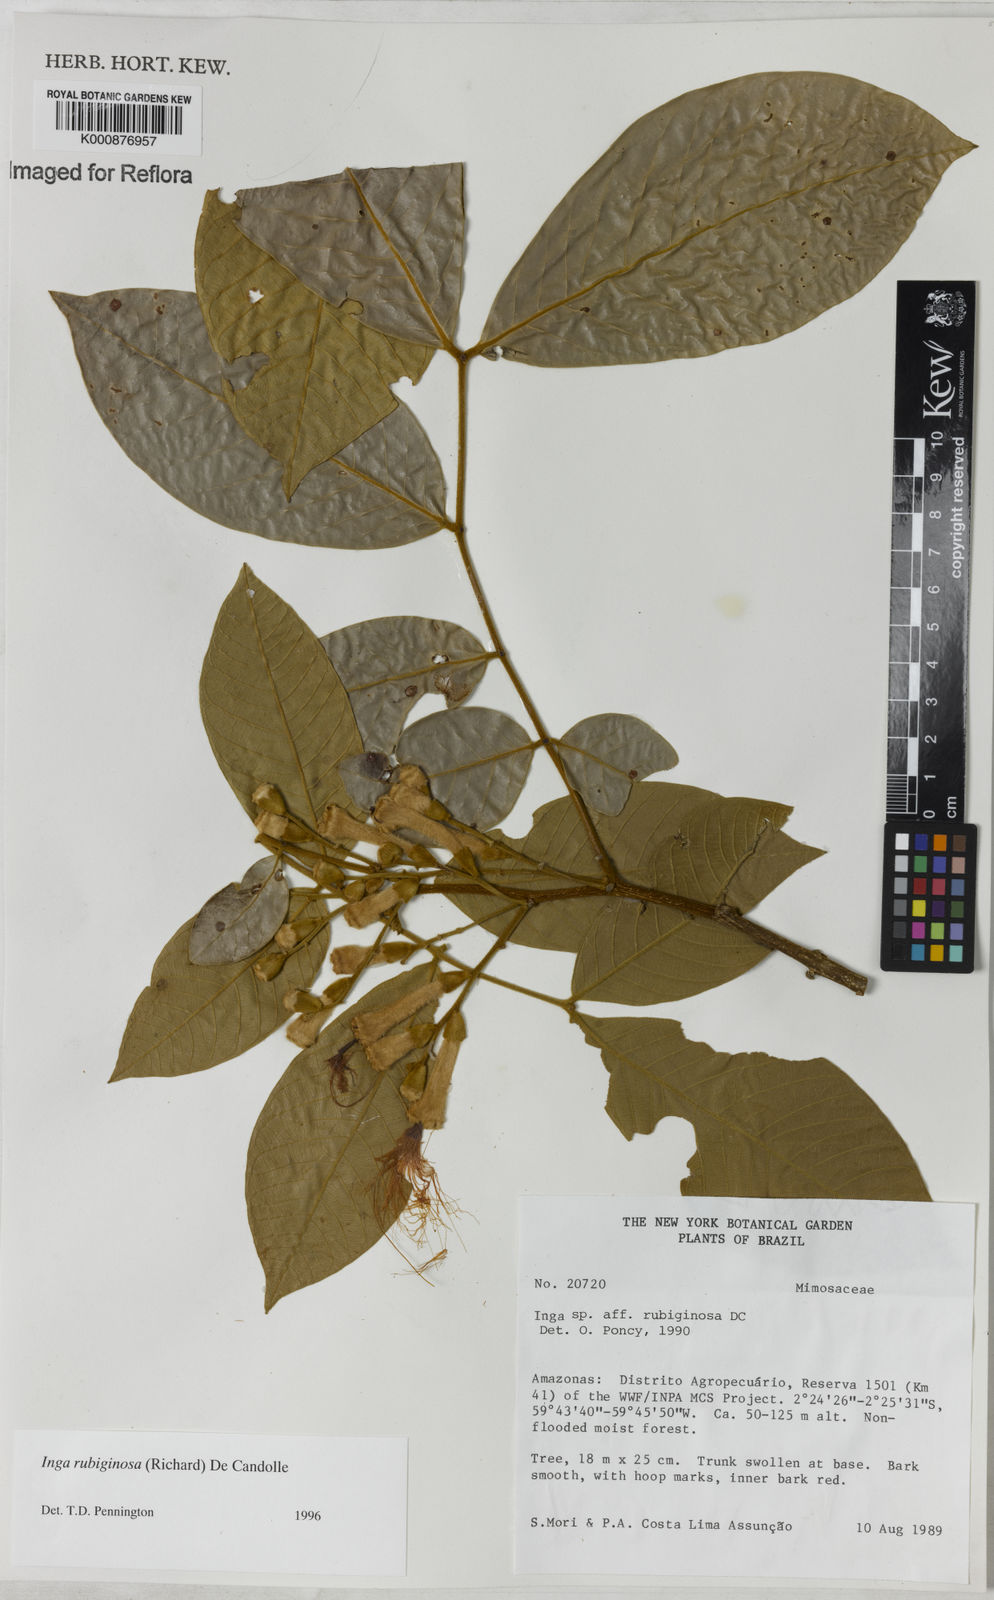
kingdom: Plantae
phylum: Tracheophyta
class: Magnoliopsida
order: Fabales
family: Fabaceae
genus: Inga
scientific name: Inga rubiginosa
